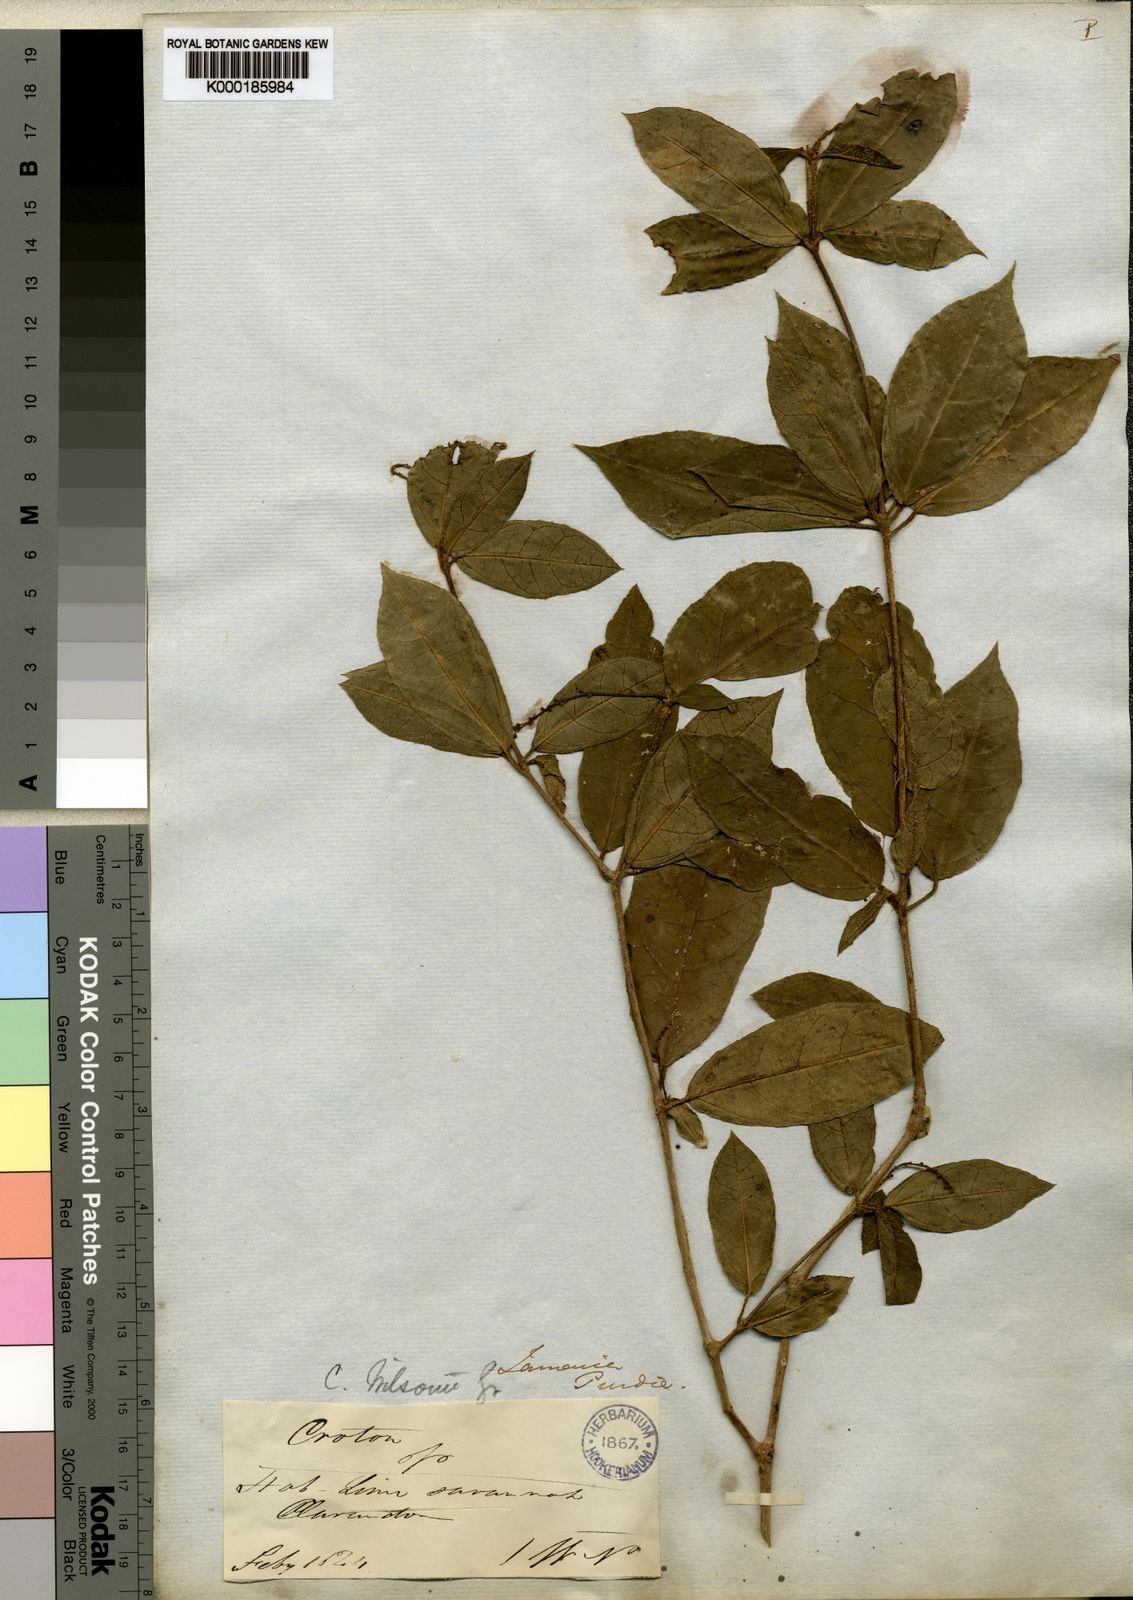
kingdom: Plantae
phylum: Tracheophyta
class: Magnoliopsida
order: Malpighiales
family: Euphorbiaceae
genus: Croton
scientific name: Croton lucidus
